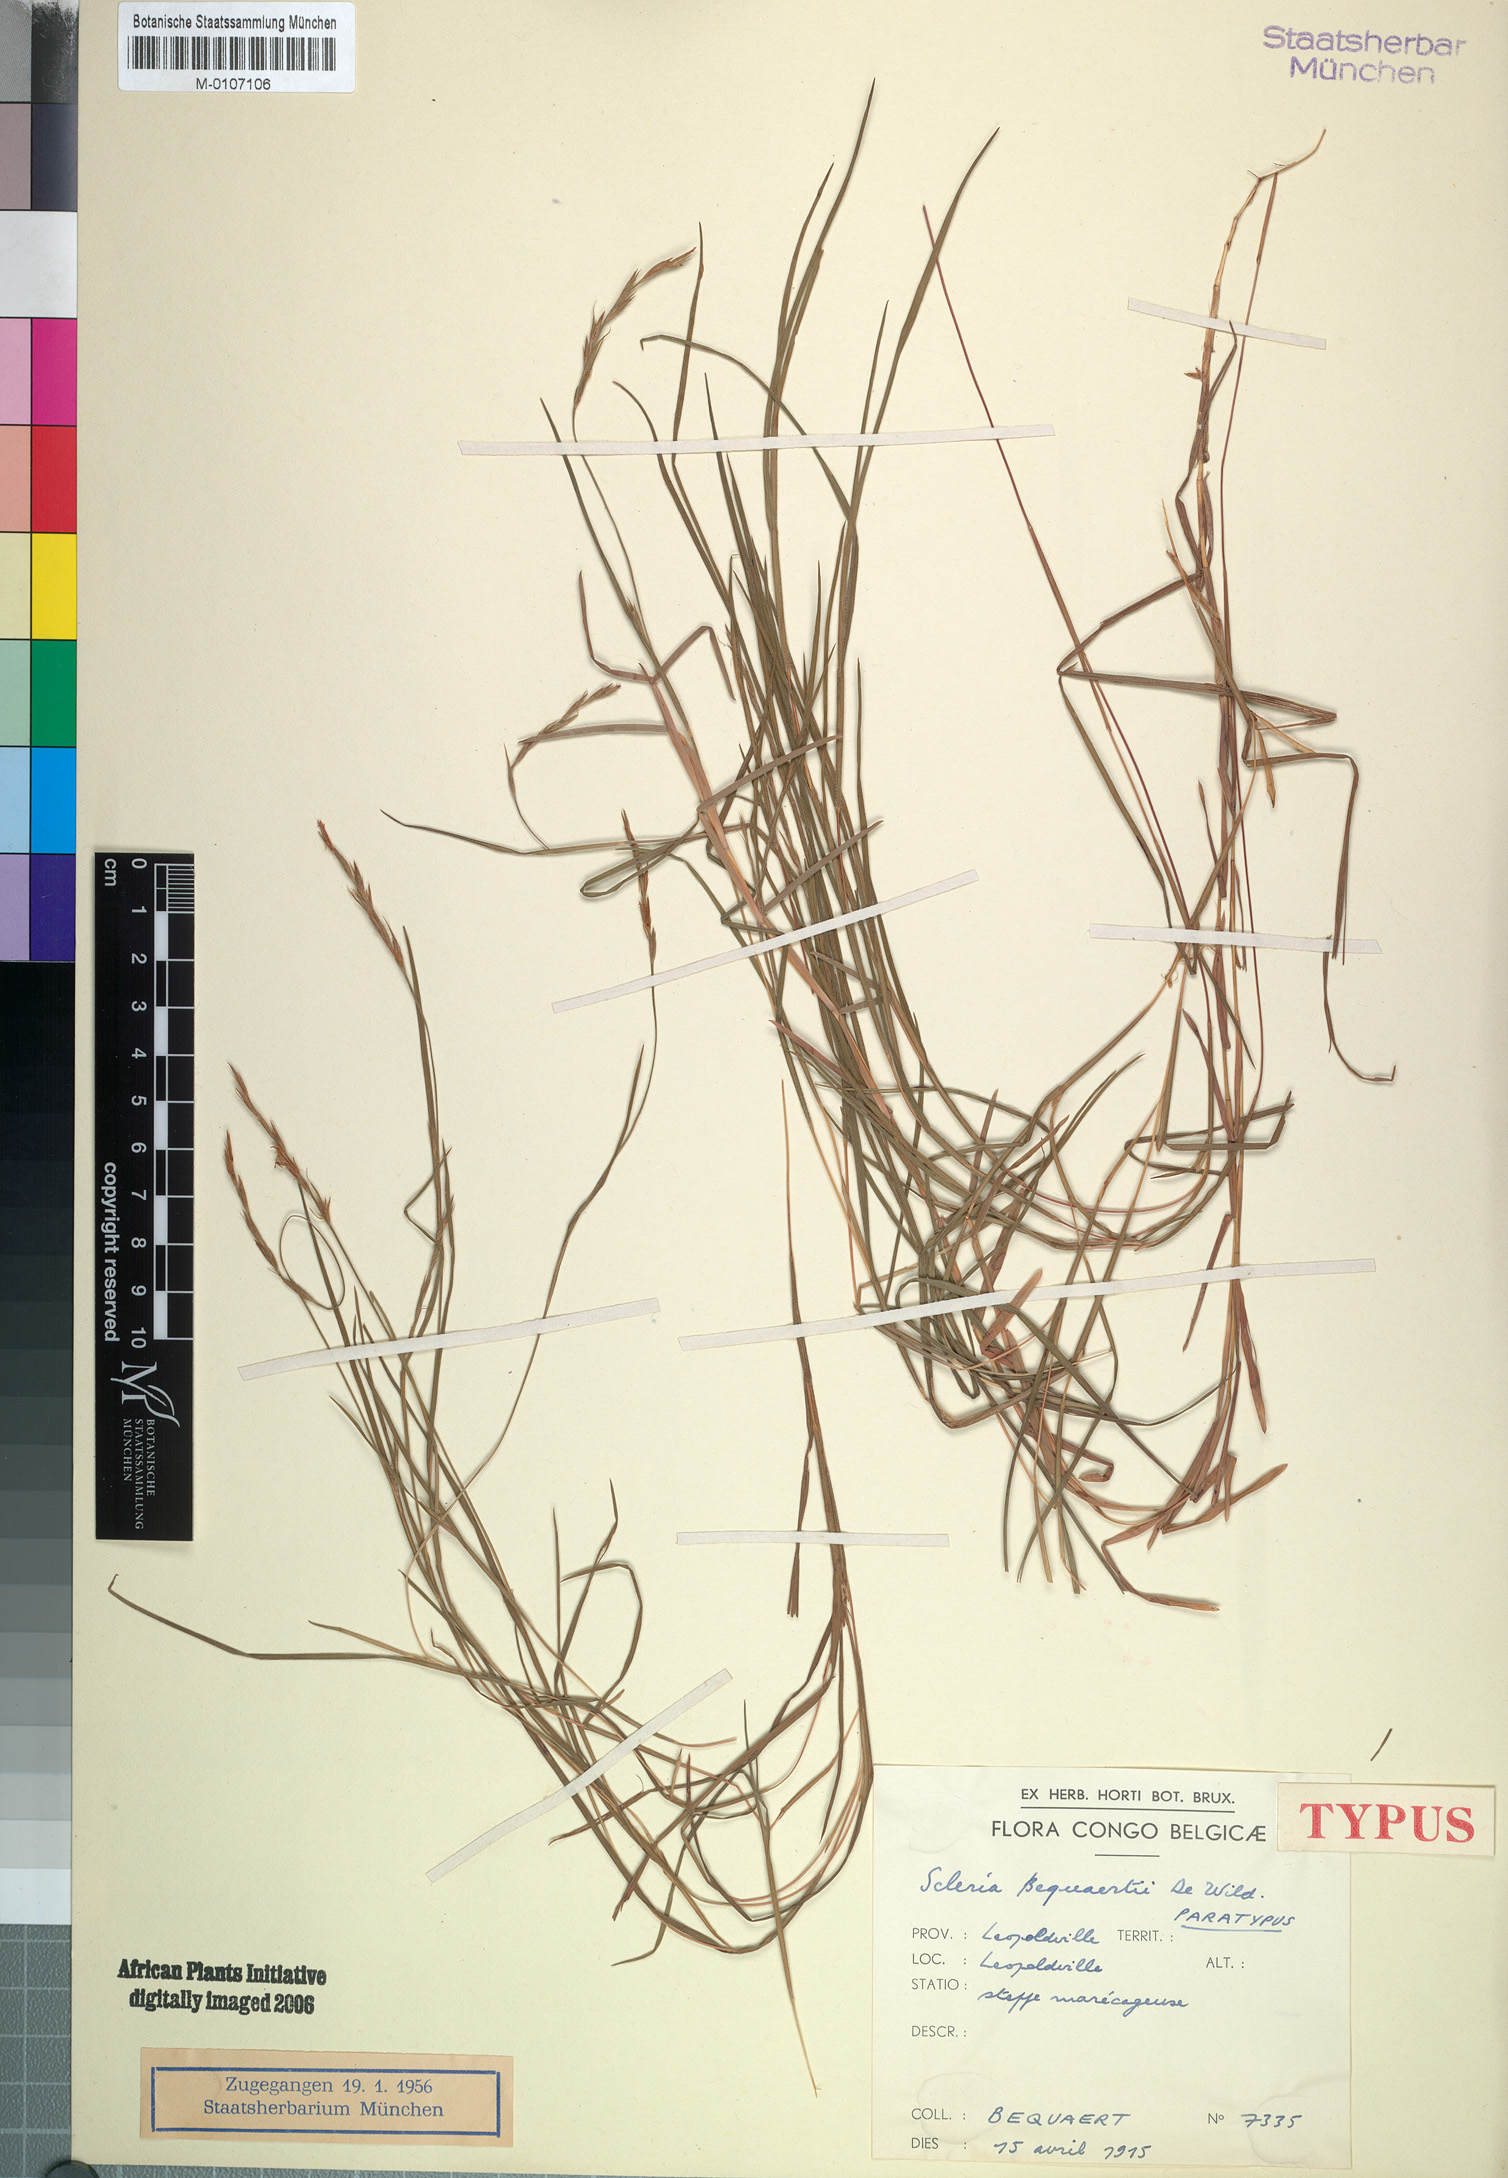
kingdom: Plantae
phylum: Tracheophyta
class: Liliopsida
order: Poales
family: Cyperaceae
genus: Scleria
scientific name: Scleria bequaertii
